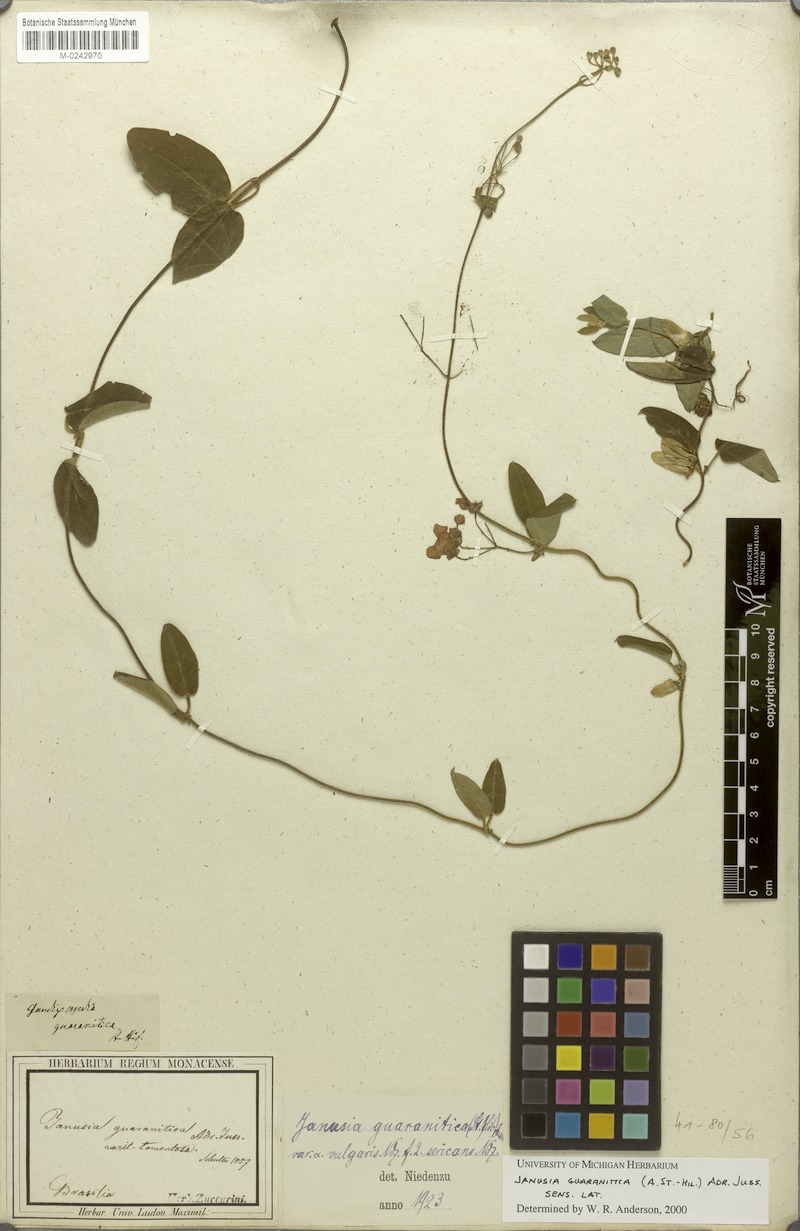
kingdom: Plantae
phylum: Tracheophyta
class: Magnoliopsida
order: Malpighiales
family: Malpighiaceae
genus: Janusia
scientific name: Janusia guaranitica
